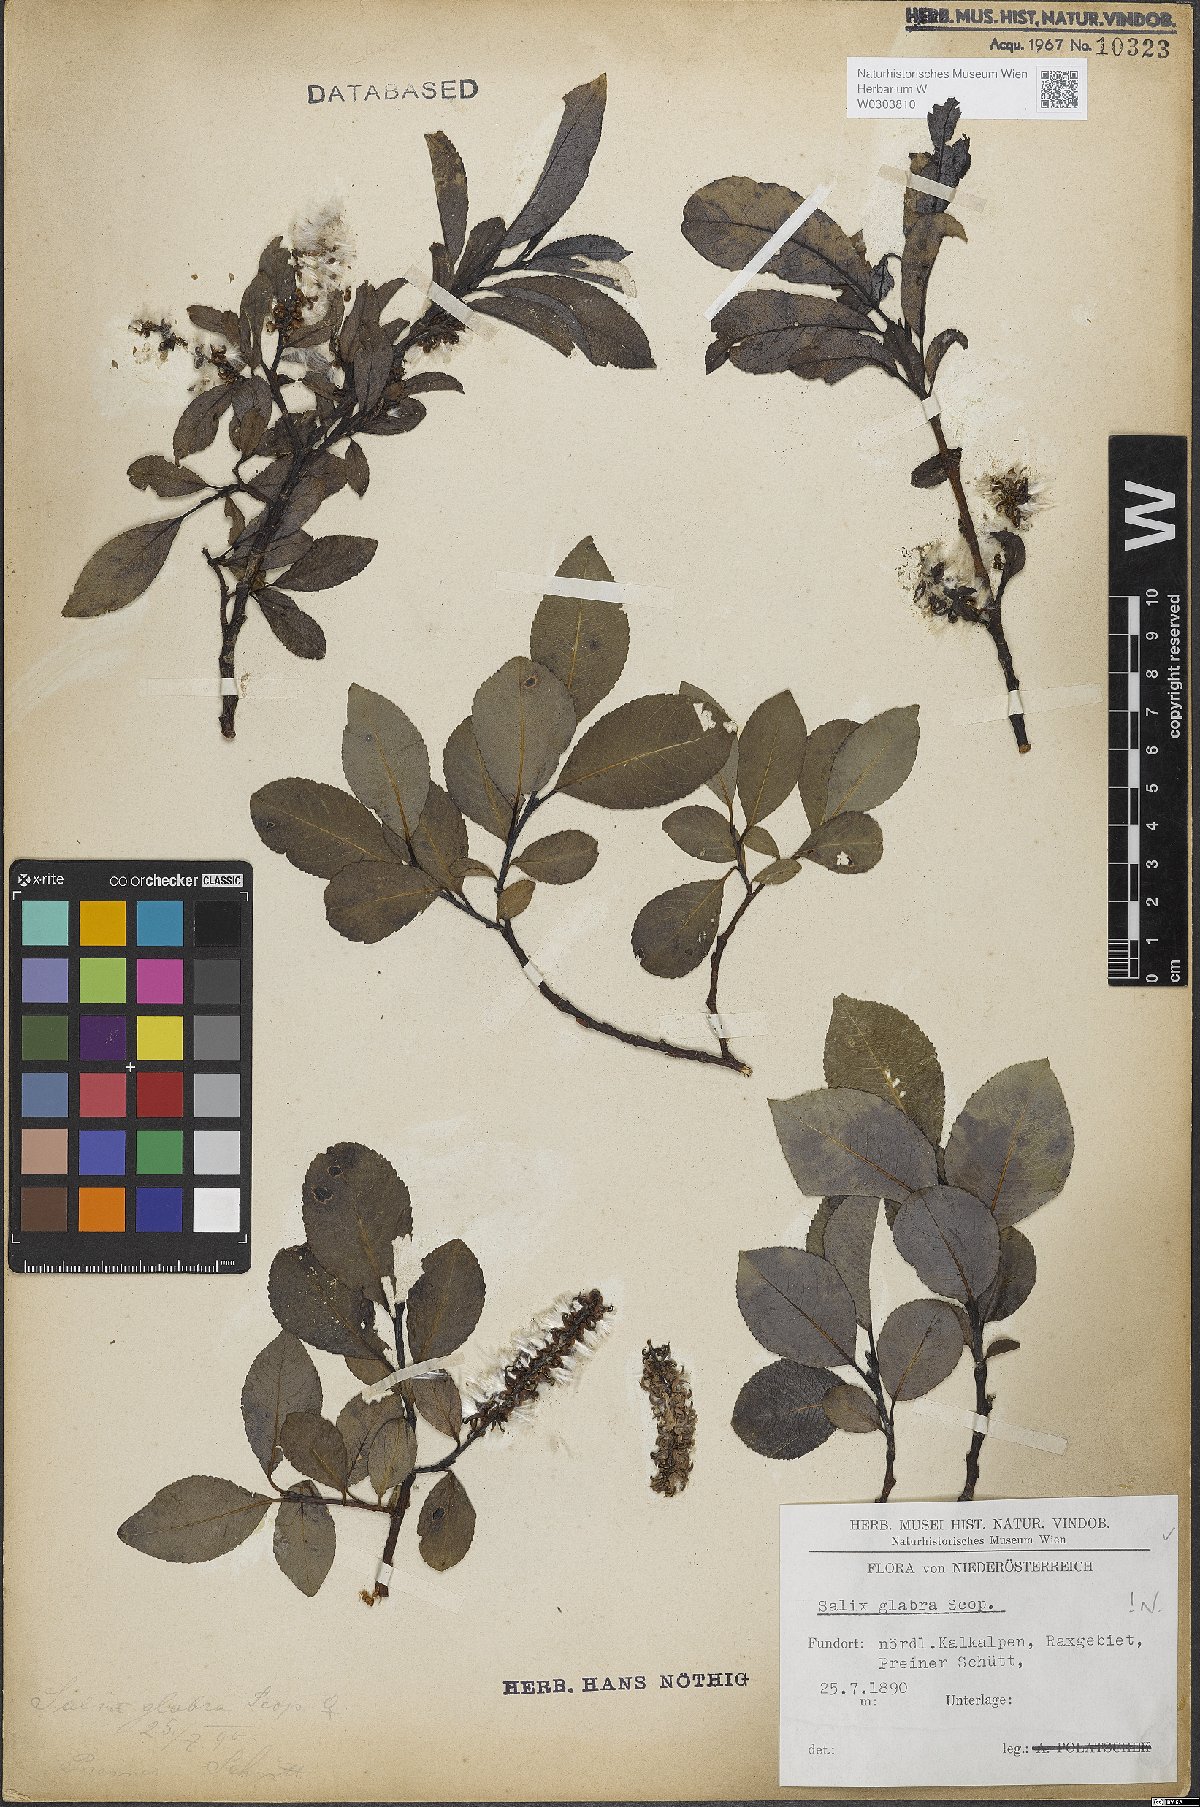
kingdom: Plantae
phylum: Tracheophyta
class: Magnoliopsida
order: Malpighiales
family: Salicaceae
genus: Salix
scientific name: Salix glabra
